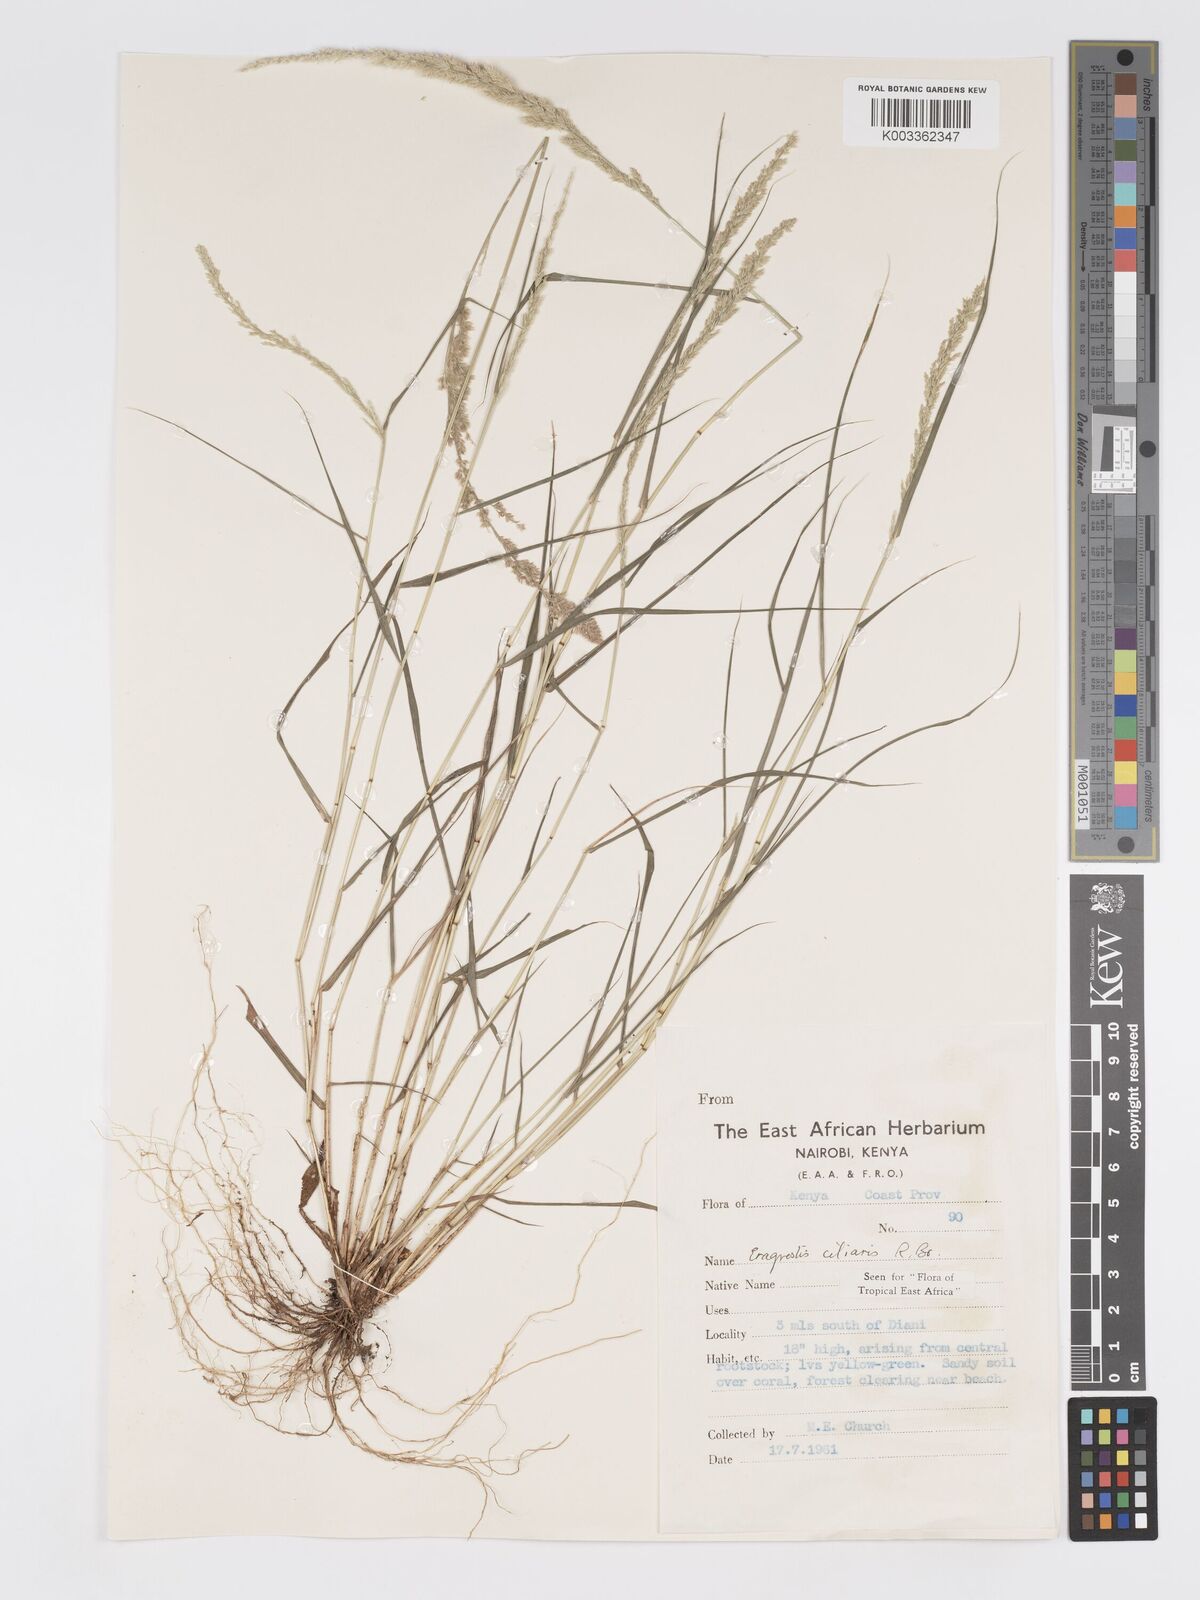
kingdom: Plantae
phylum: Tracheophyta
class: Liliopsida
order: Poales
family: Poaceae
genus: Eragrostis
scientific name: Eragrostis ciliaris
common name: Gophertail lovegrass
